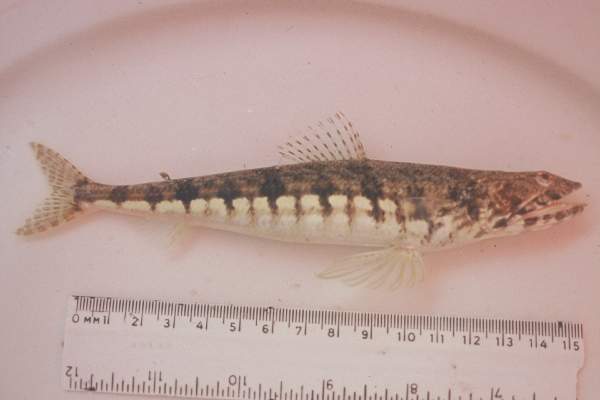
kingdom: Animalia
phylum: Chordata
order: Aulopiformes
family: Synodontidae
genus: Synodus
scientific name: Synodus dermatogenys
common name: Banded lizardfish
